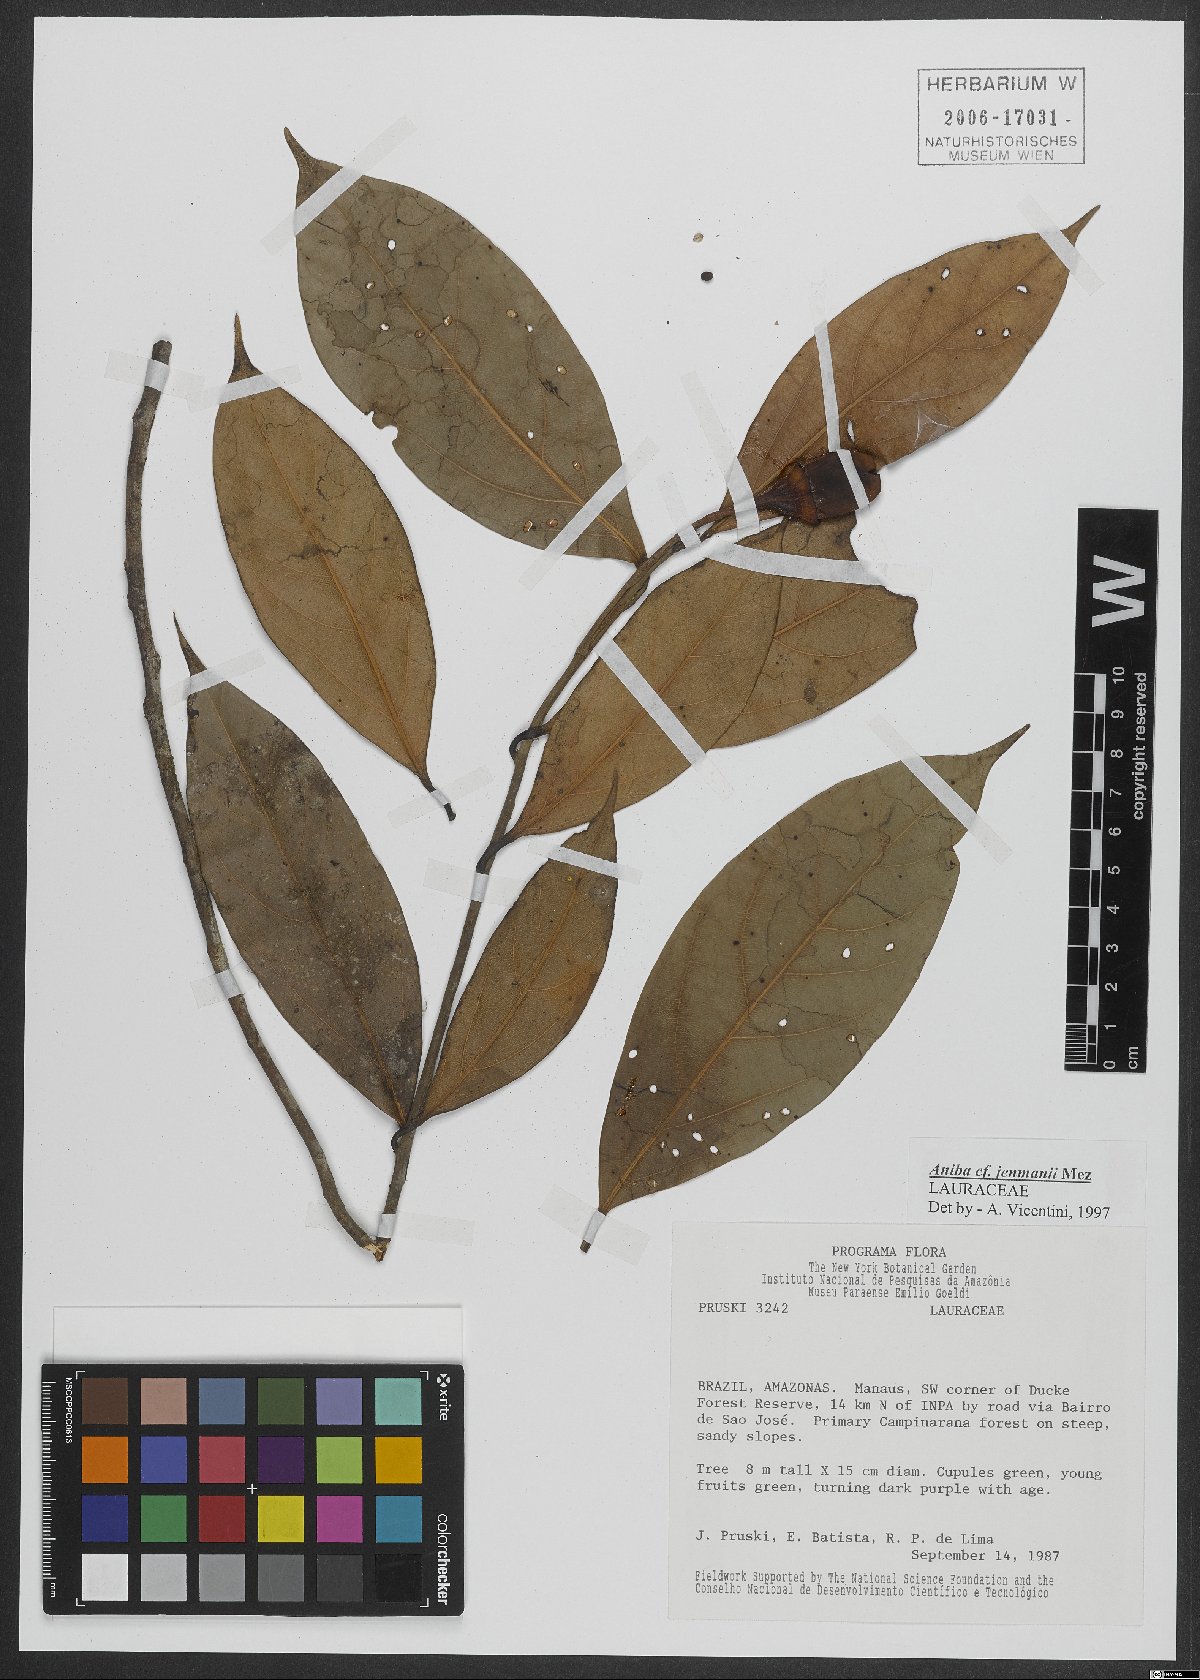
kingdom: Plantae
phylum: Tracheophyta
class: Magnoliopsida
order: Laurales
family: Lauraceae
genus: Aniba
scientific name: Aniba jenmanii
